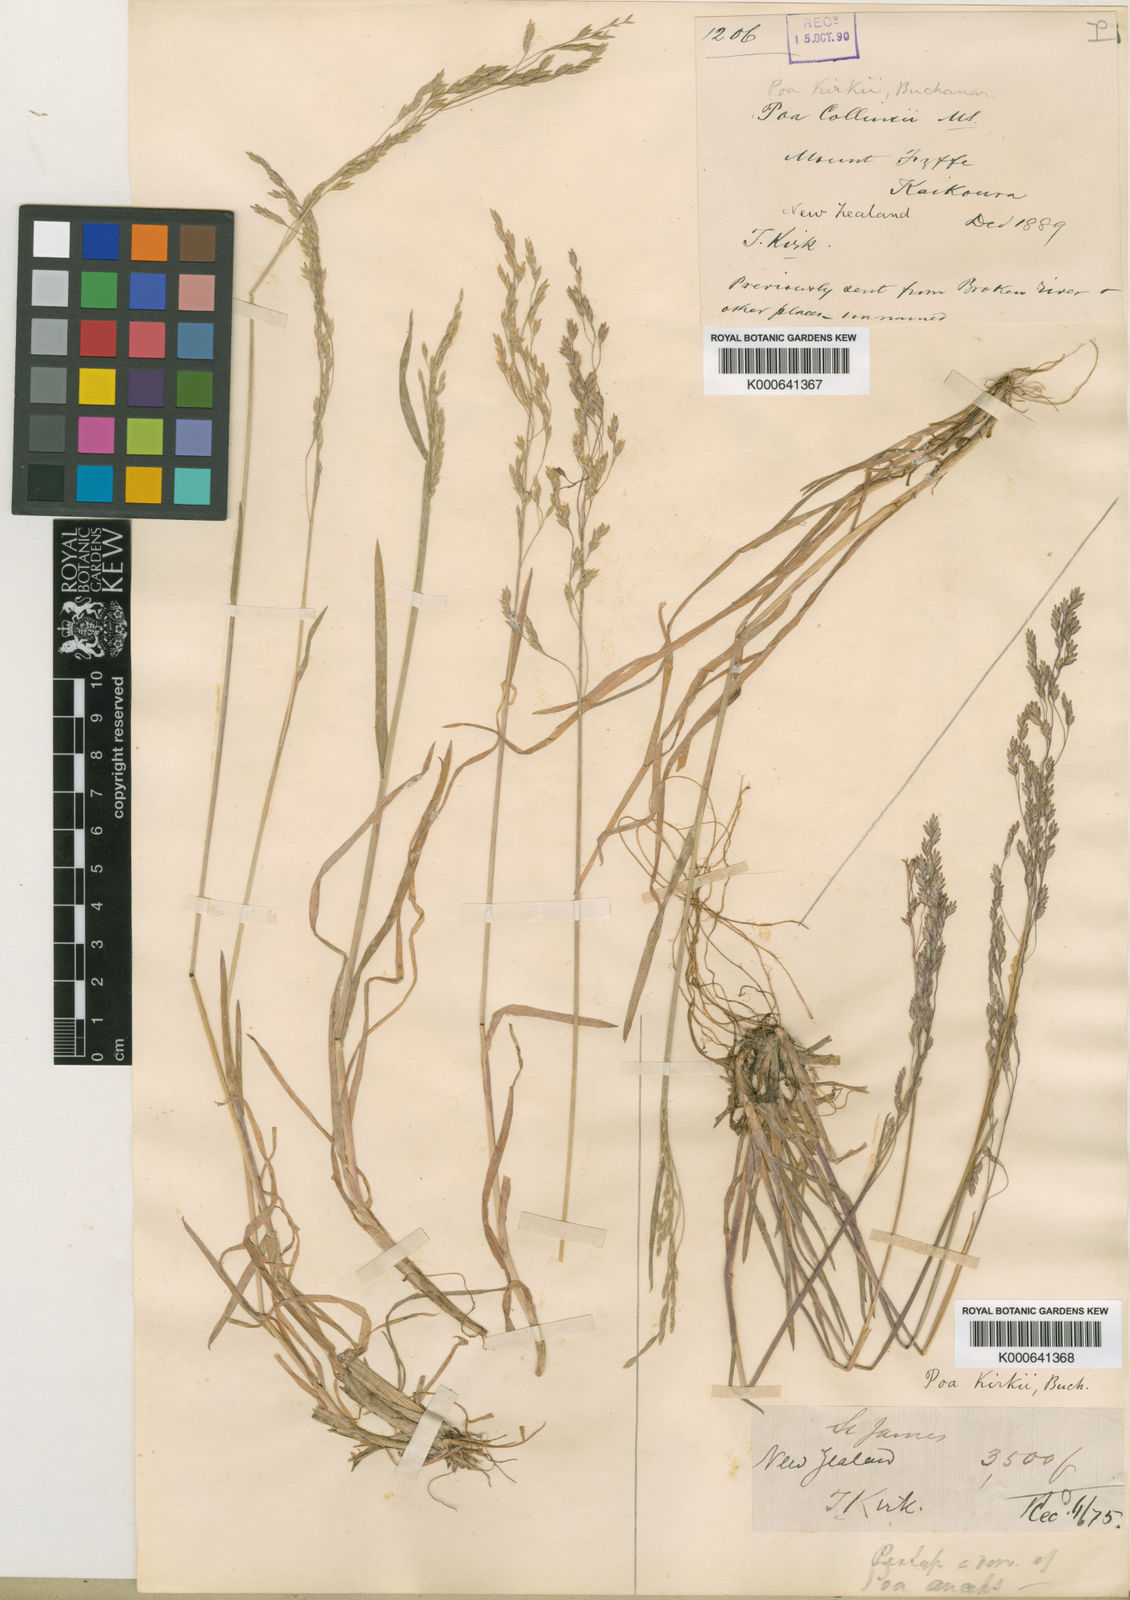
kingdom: Plantae
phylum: Tracheophyta
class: Liliopsida
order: Poales
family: Poaceae
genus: Poa
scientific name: Poa kirkii
